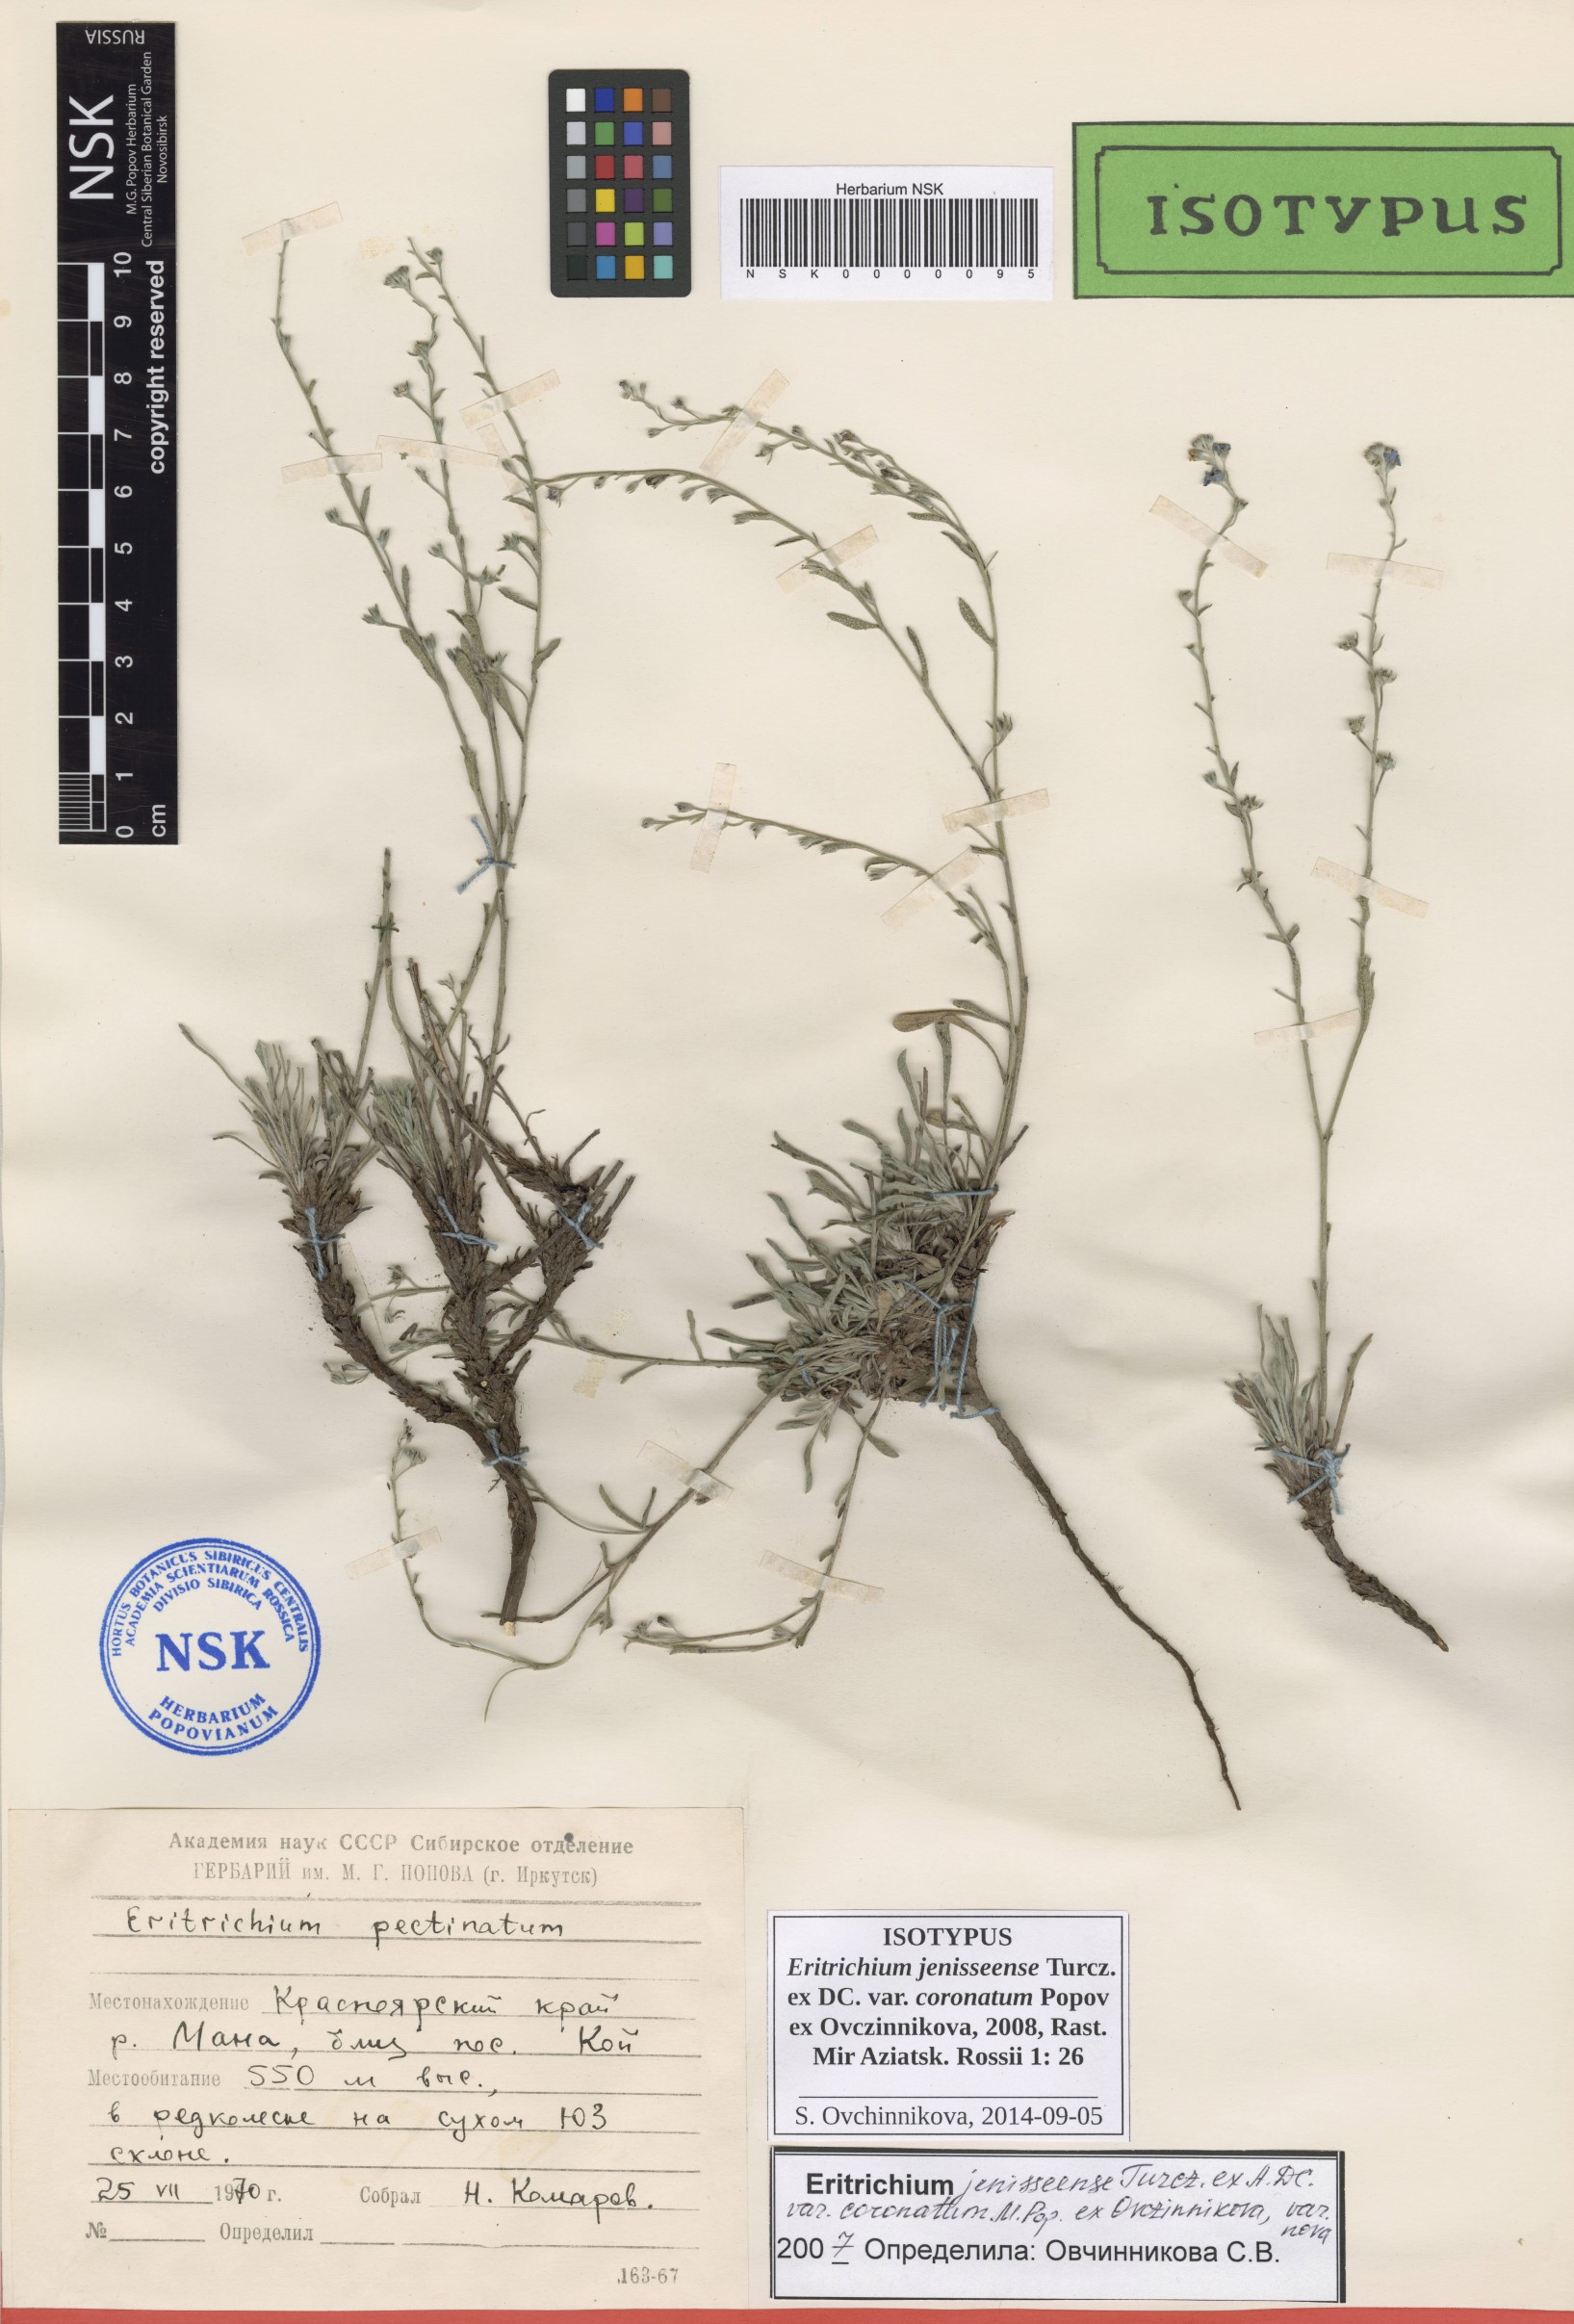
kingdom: Plantae
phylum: Tracheophyta
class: Magnoliopsida
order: Boraginales
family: Boraginaceae
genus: Eritrichium
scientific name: Eritrichium jenisseense
